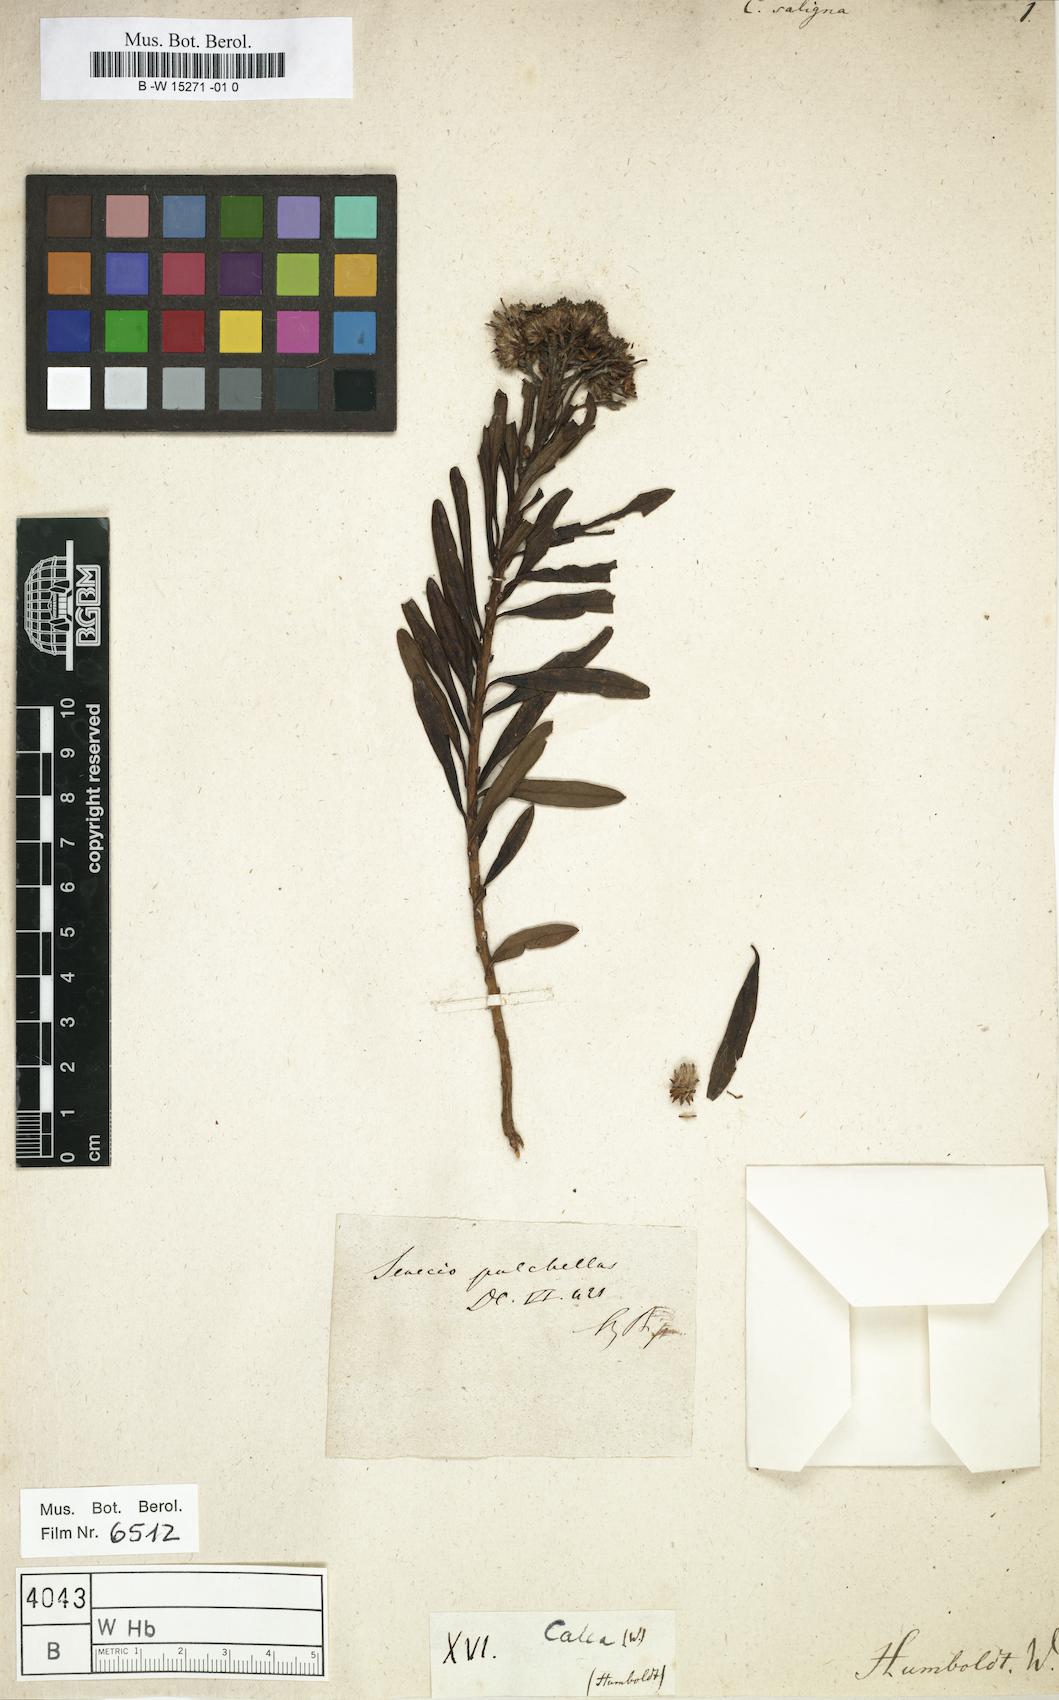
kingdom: Plantae
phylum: Tracheophyta
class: Magnoliopsida
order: Asterales
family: Asteraceae
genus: Calea
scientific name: Calea lutea
